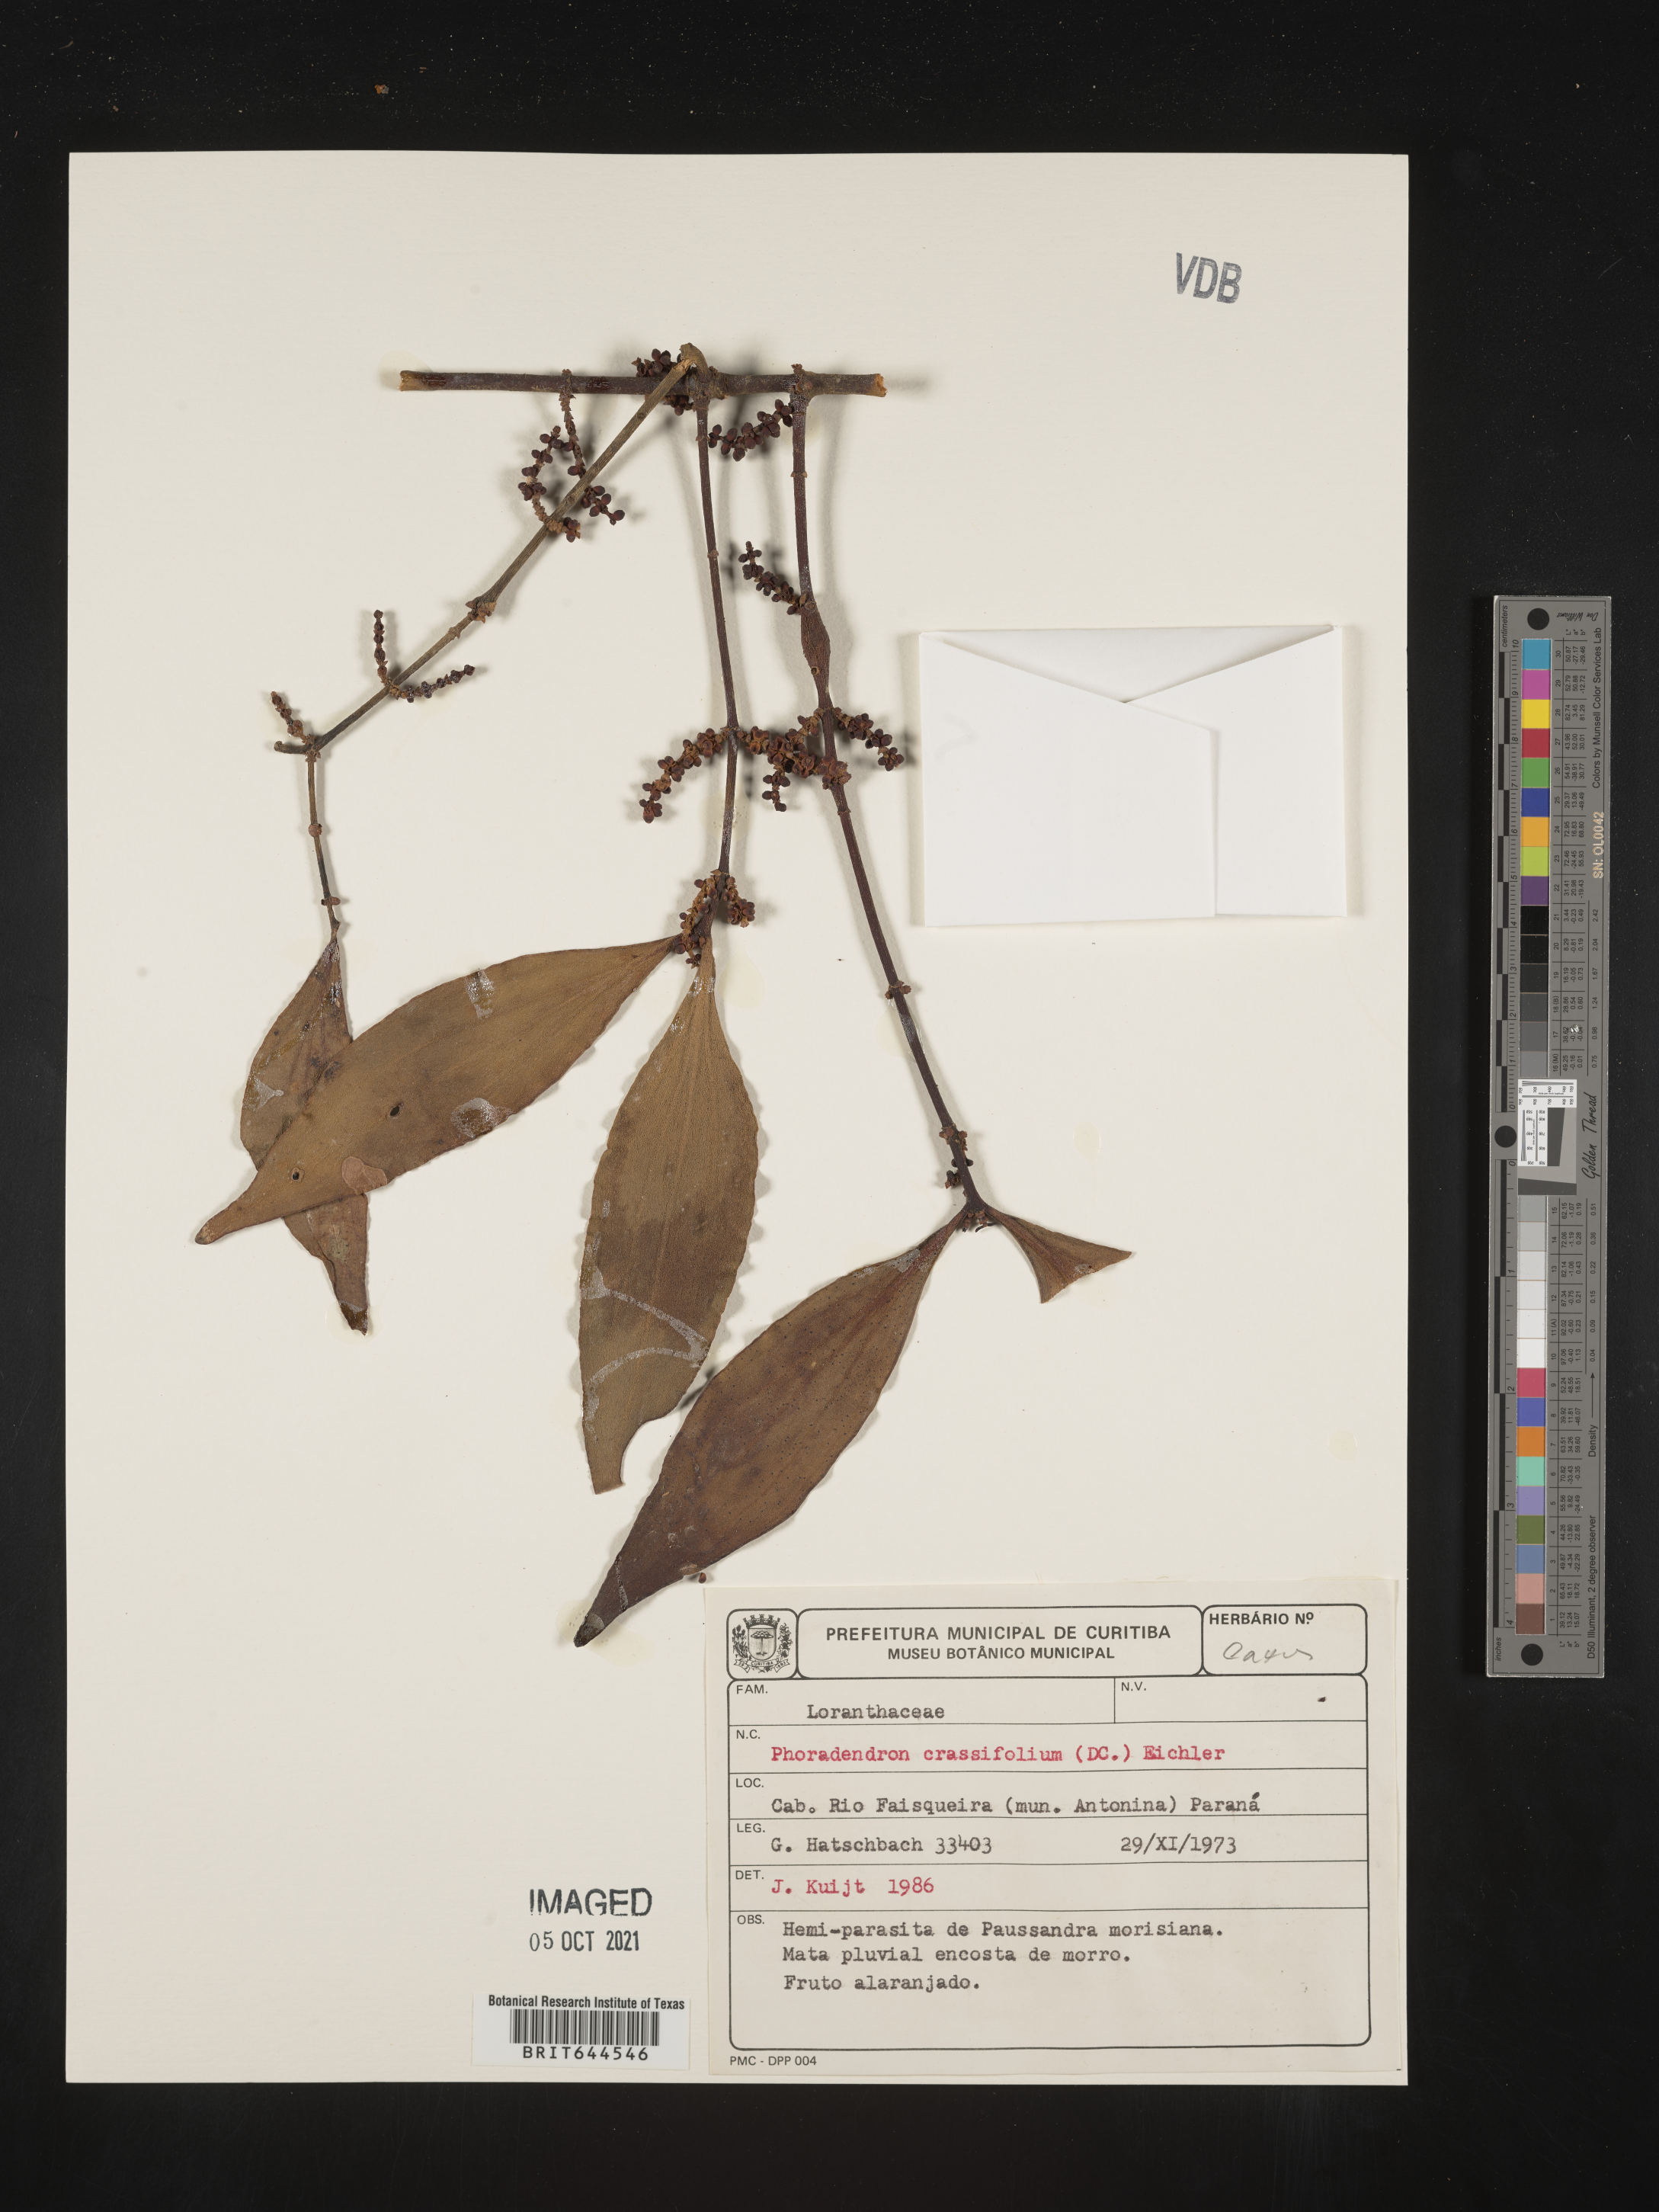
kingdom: Plantae
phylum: Tracheophyta
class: Magnoliopsida
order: Santalales
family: Viscaceae
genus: Phoradendron
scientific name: Phoradendron
